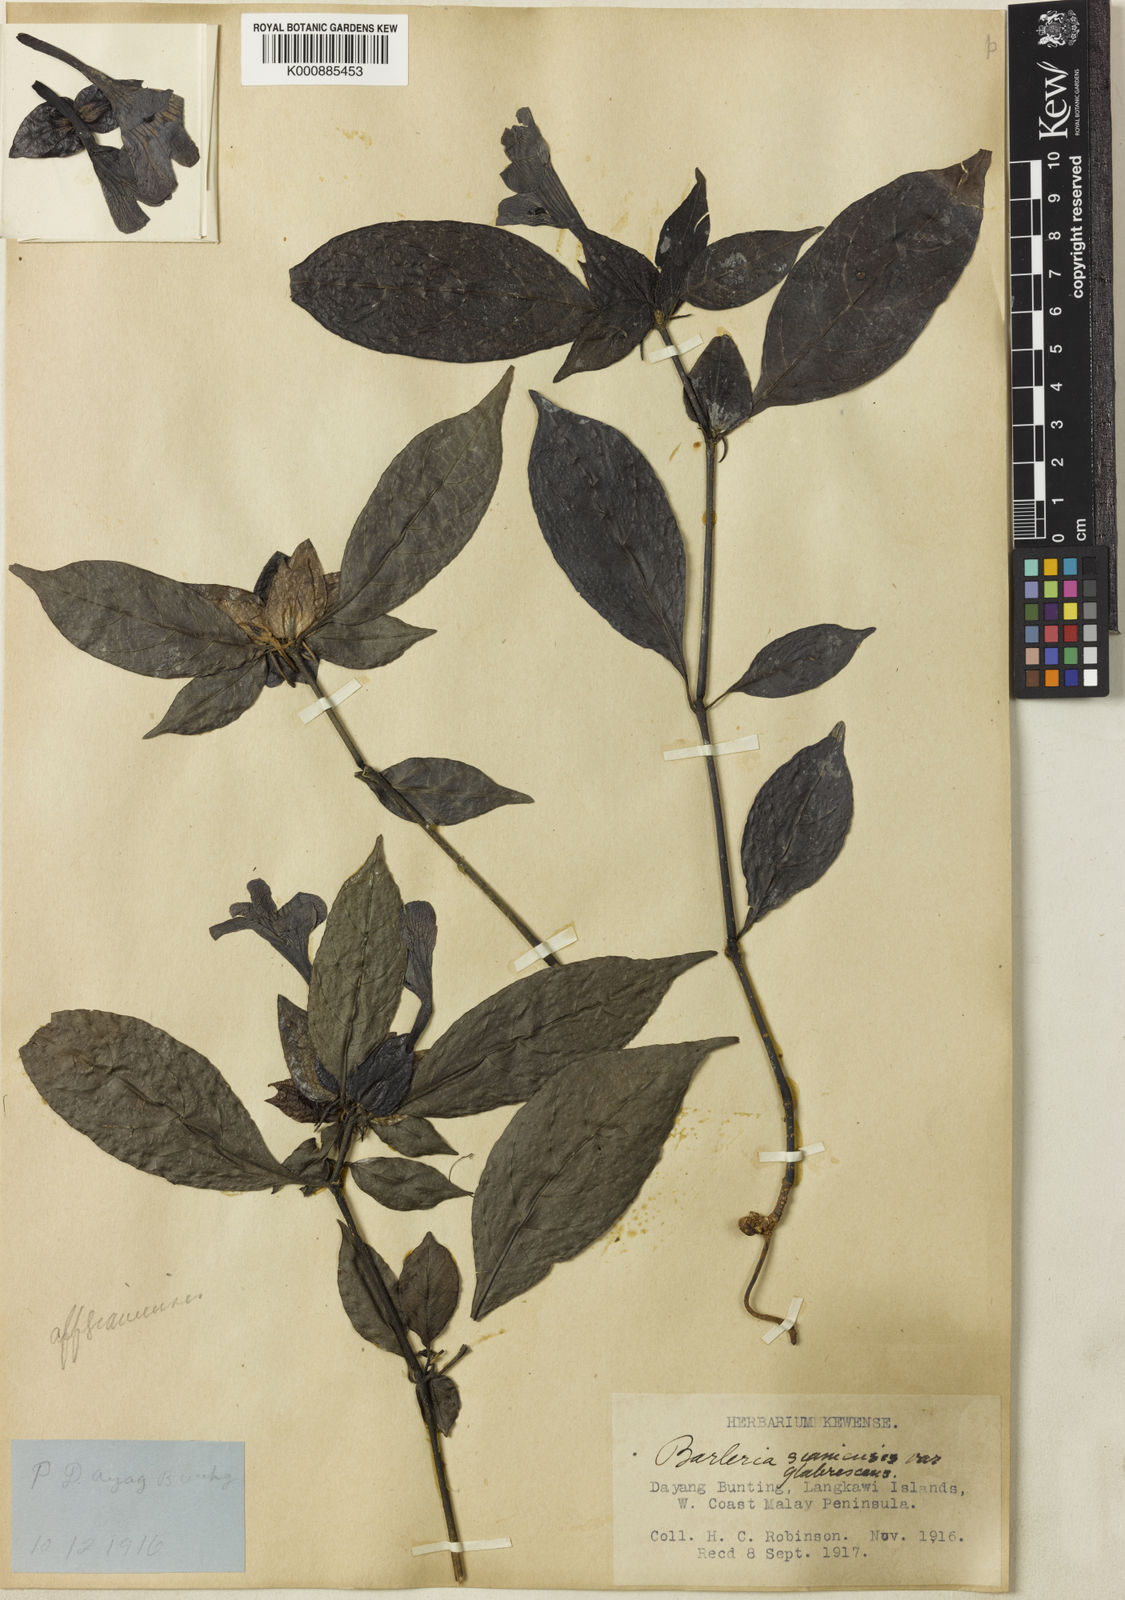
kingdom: Plantae
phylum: Tracheophyta
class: Magnoliopsida
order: Lamiales
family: Acanthaceae
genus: Barleria
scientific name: Barleria siamensis
